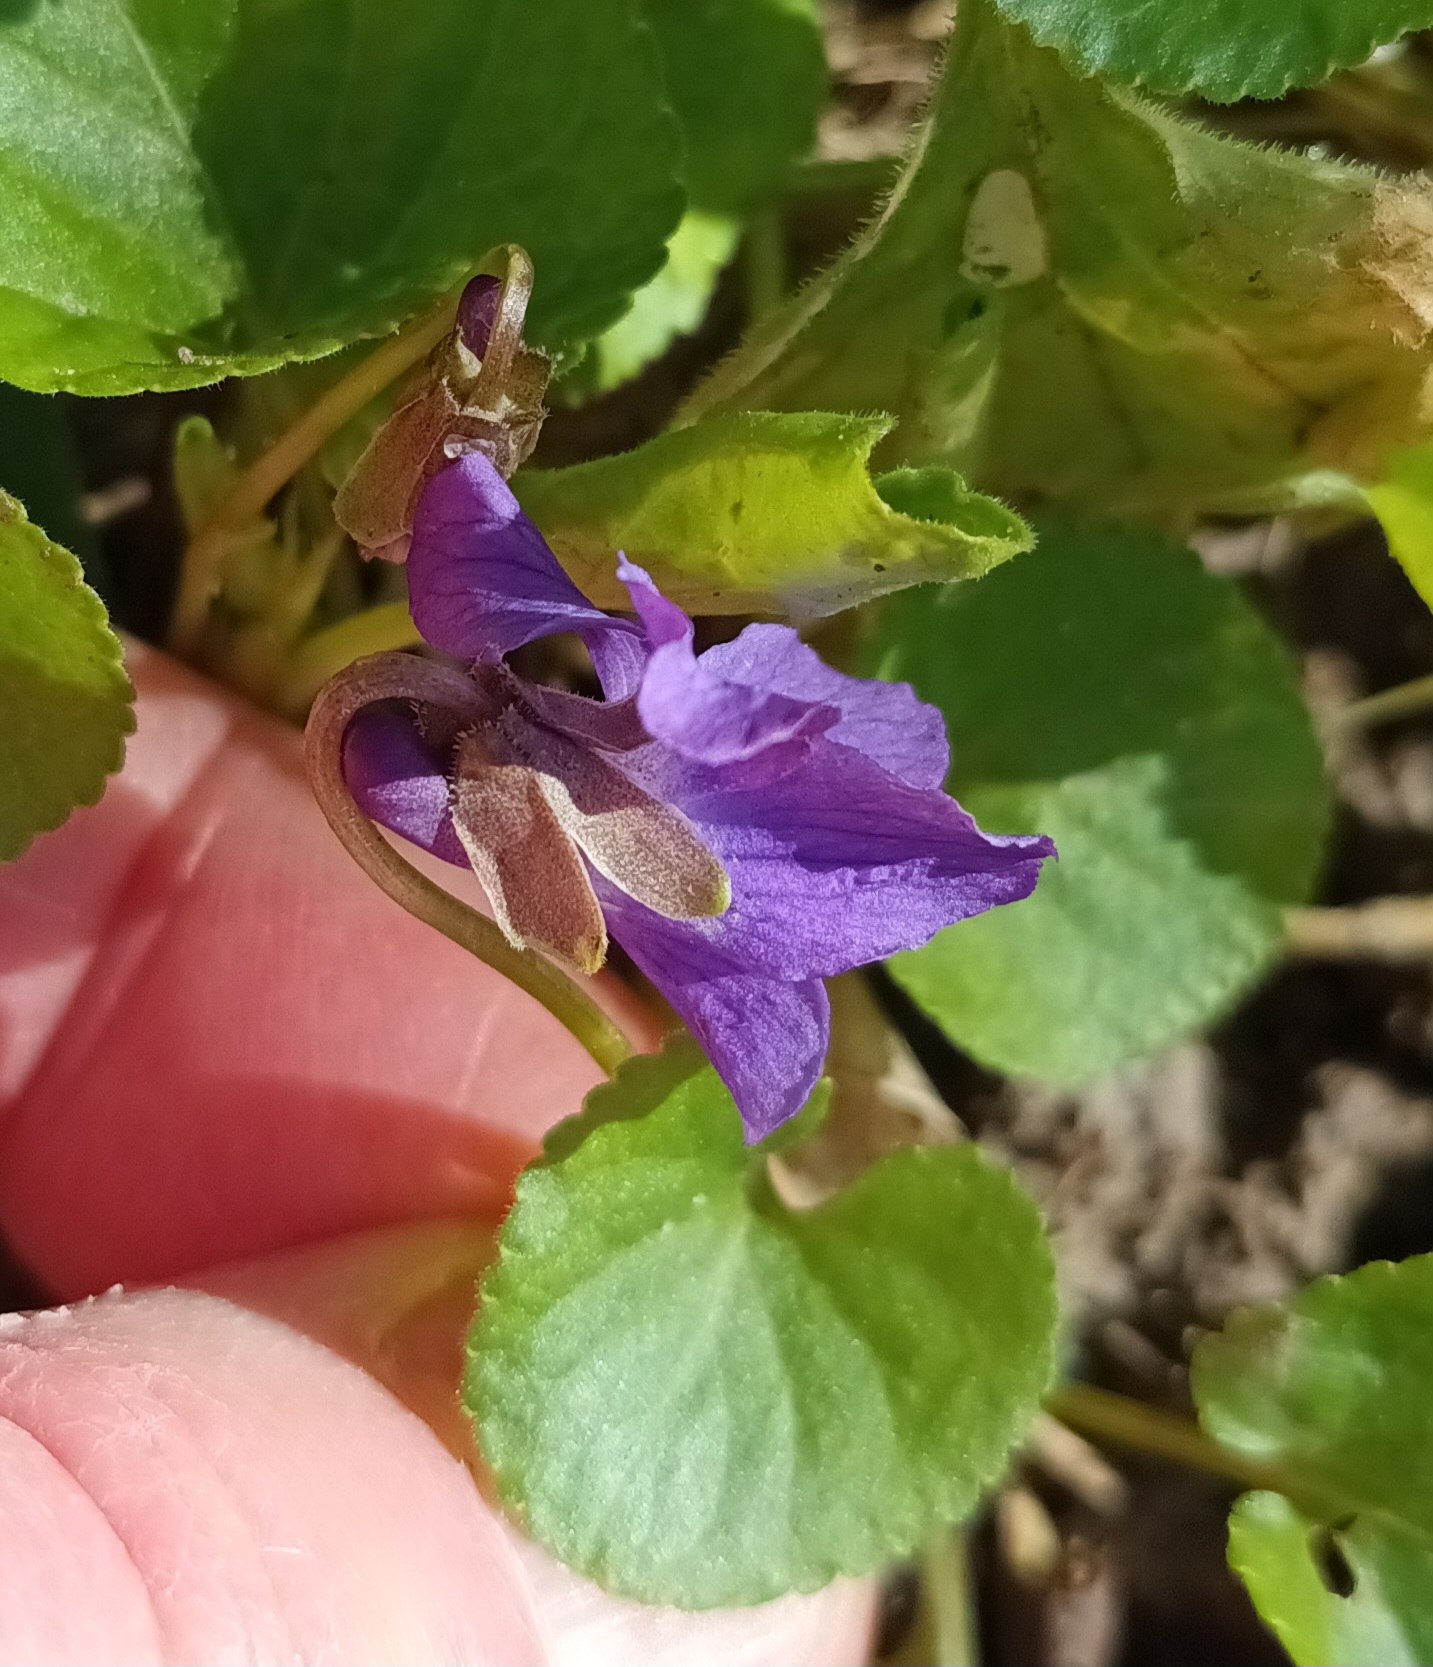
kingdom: Plantae
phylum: Tracheophyta
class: Magnoliopsida
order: Malpighiales
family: Violaceae
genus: Viola
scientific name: Viola odorata
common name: Marts-viol
